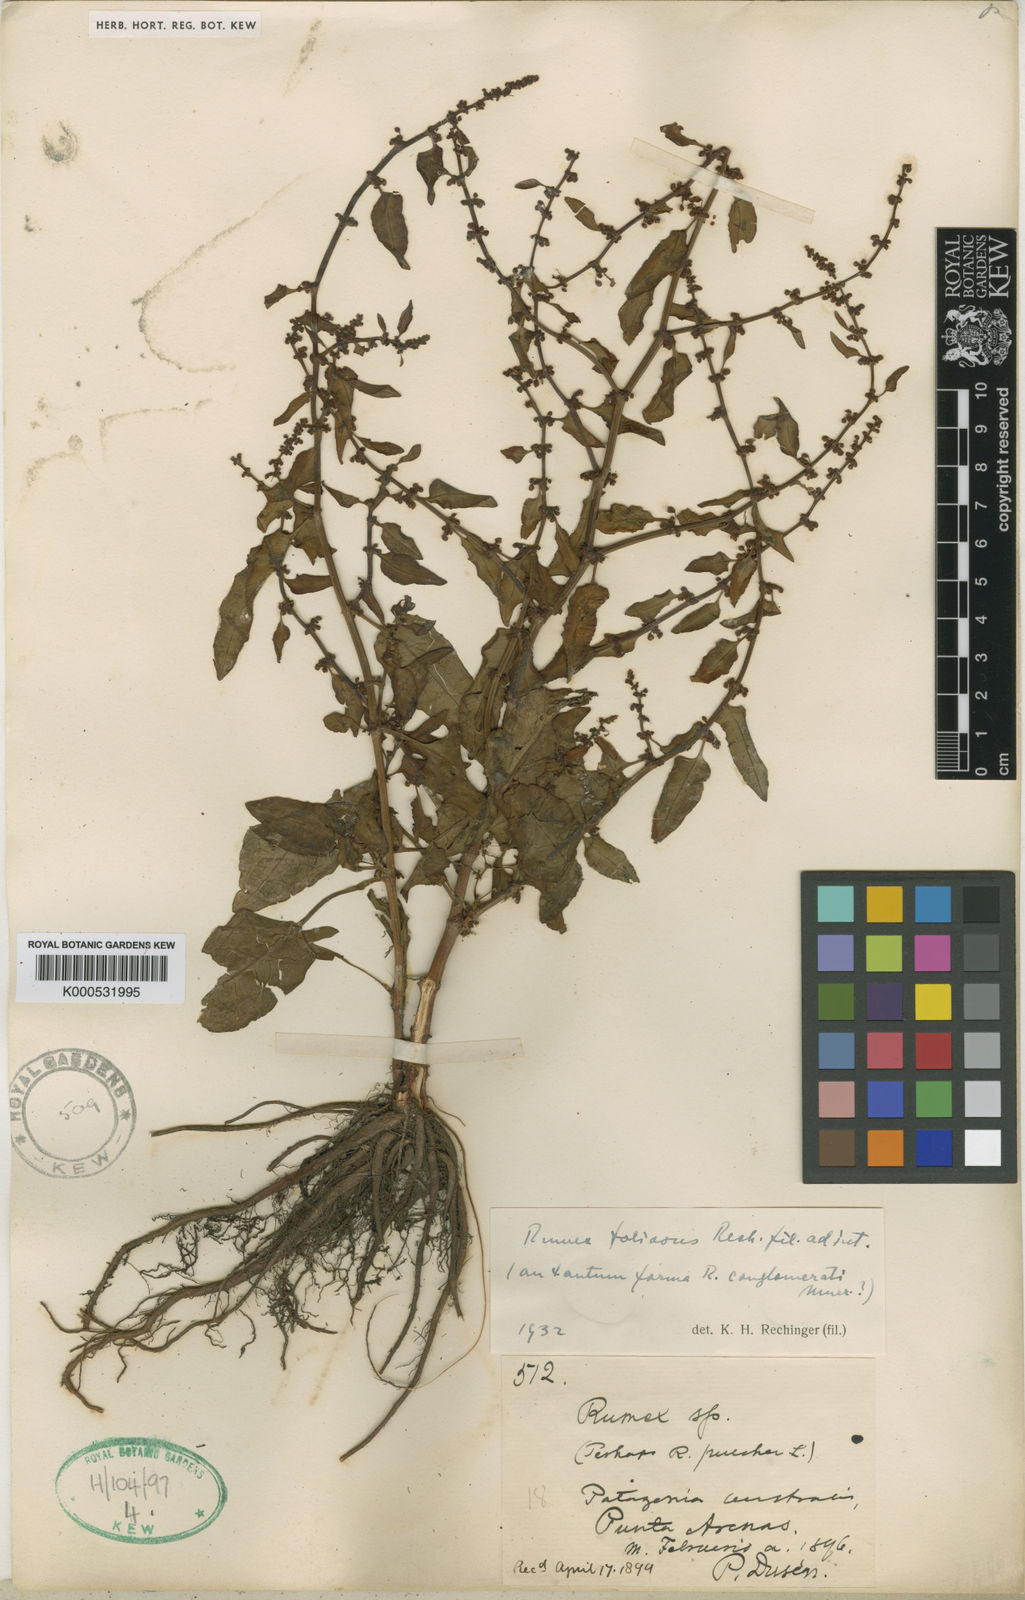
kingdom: Plantae
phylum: Tracheophyta
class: Magnoliopsida
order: Caryophyllales
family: Polygonaceae
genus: Rumex
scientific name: Rumex conglomeratus
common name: Clustered dock
